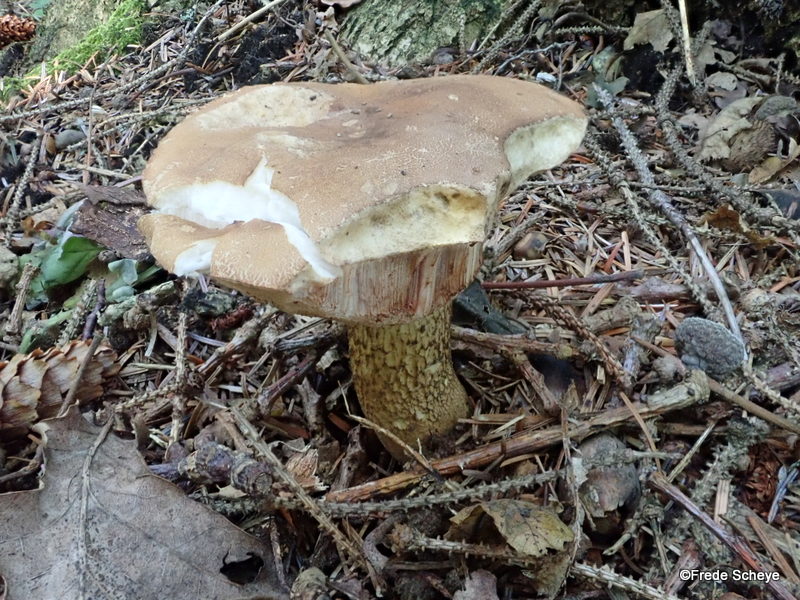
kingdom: Fungi
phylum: Basidiomycota
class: Agaricomycetes
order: Boletales
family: Boletaceae
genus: Tylopilus
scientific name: Tylopilus felleus
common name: galderørhat
